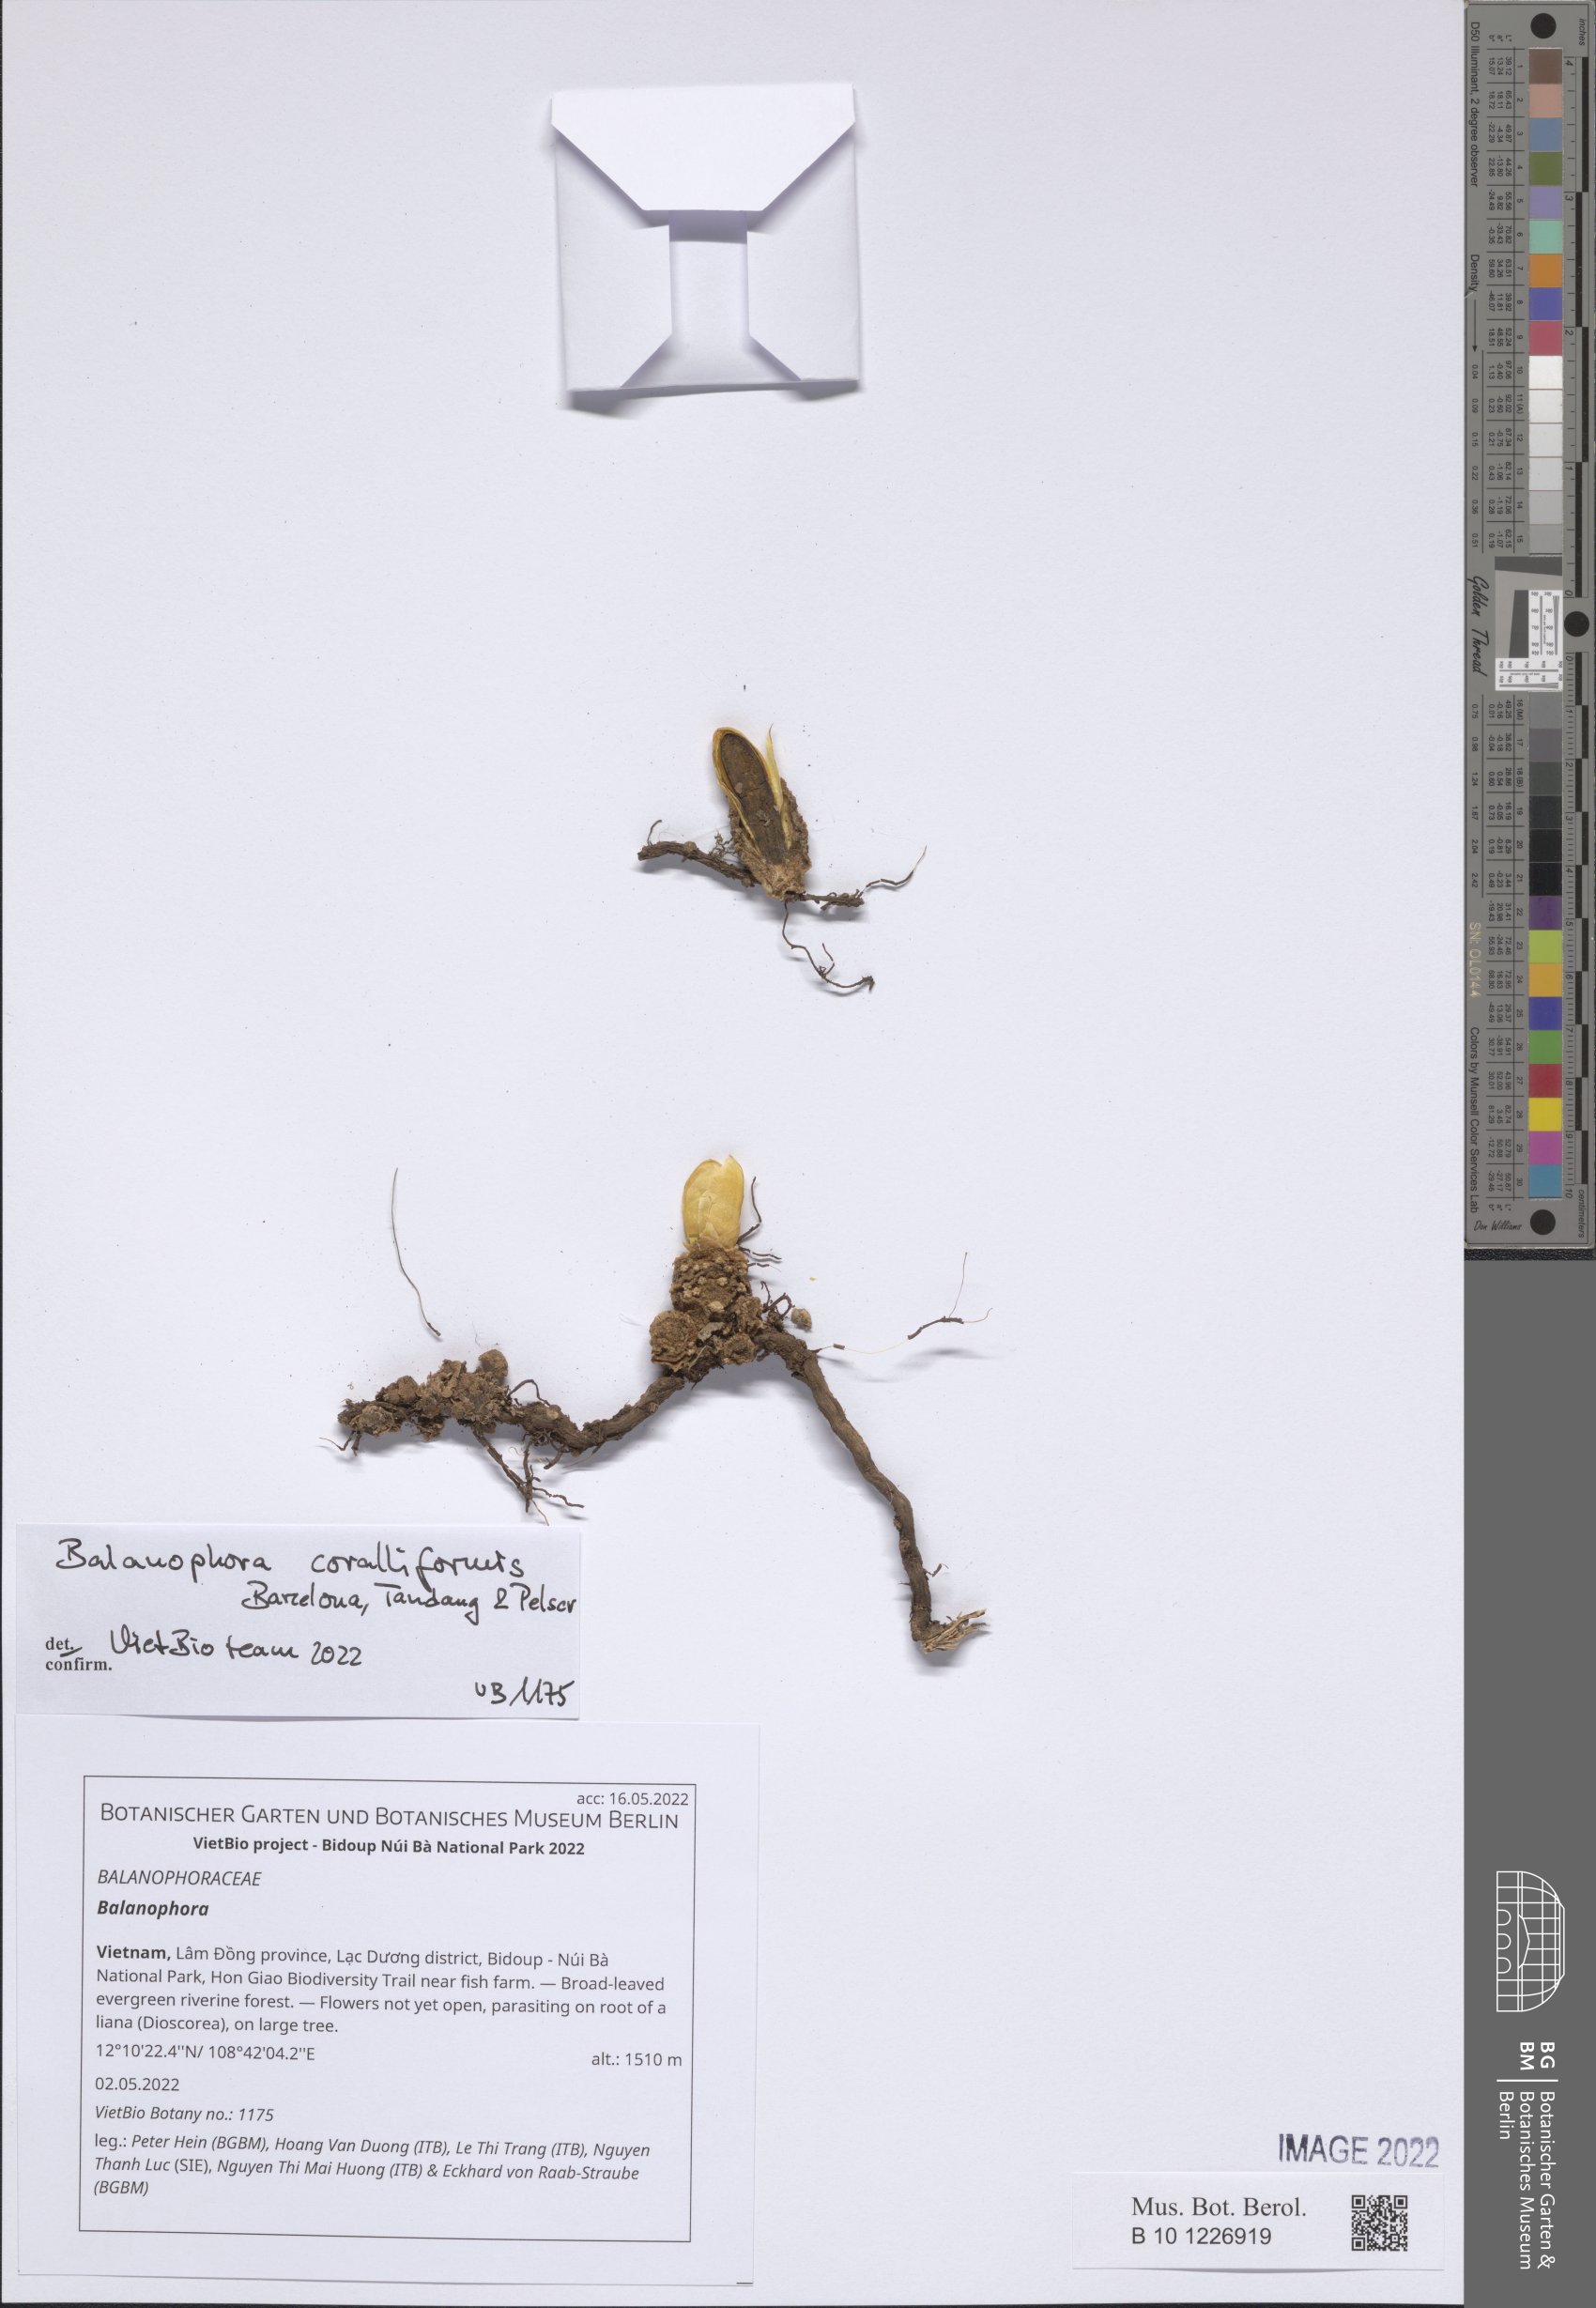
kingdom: Plantae
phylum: Tracheophyta
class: Magnoliopsida
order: Santalales
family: Balanophoraceae
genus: Balanophora
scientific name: Balanophora
